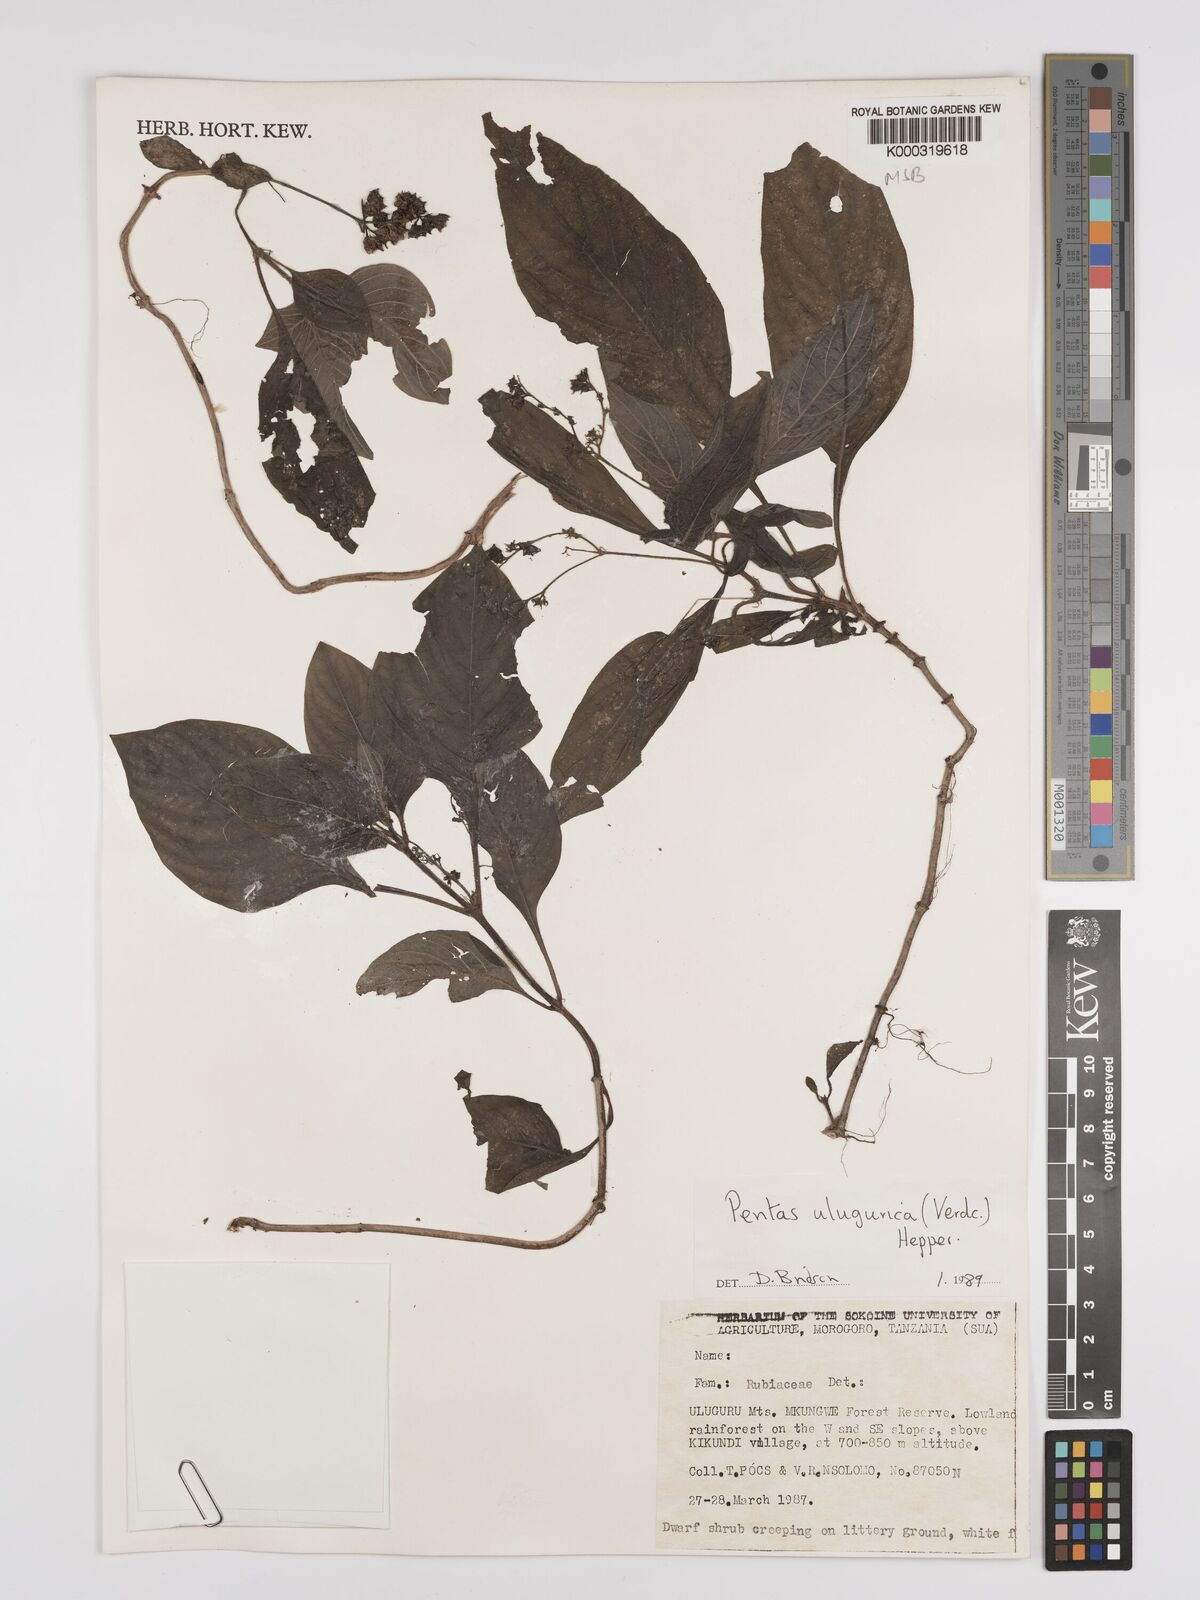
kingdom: Plantae
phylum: Tracheophyta
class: Magnoliopsida
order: Gentianales
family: Rubiaceae
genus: Phyllopentas
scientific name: Phyllopentas ulugurica
